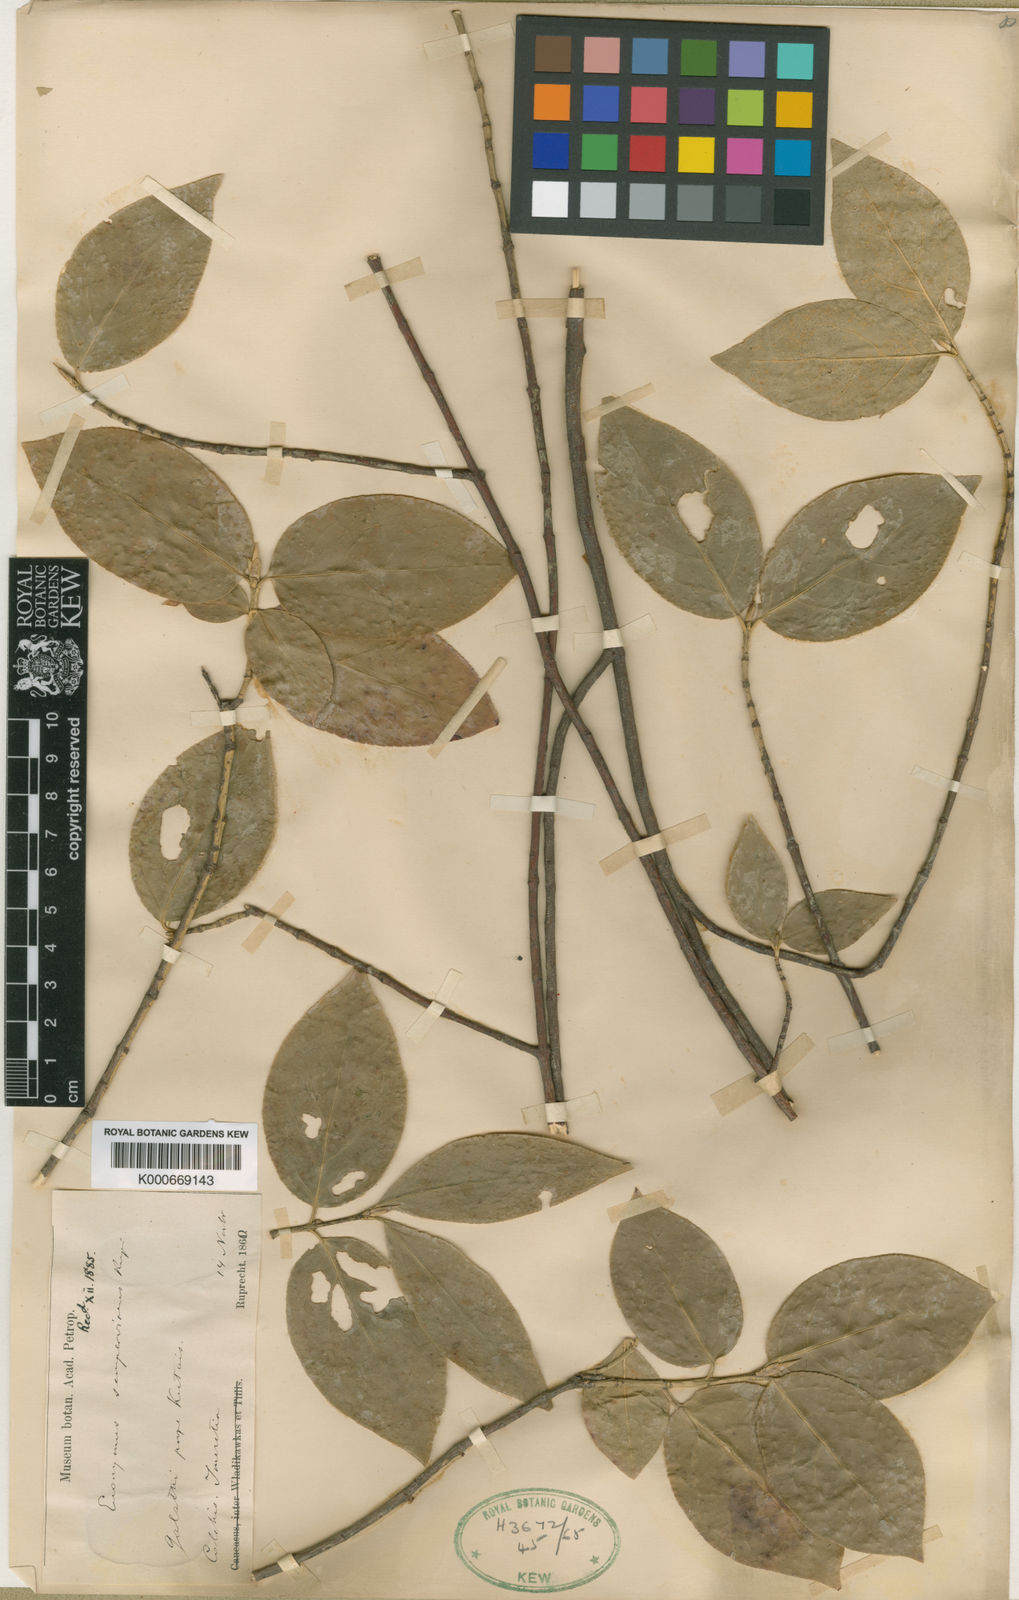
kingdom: Plantae
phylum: Tracheophyta
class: Magnoliopsida
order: Celastrales
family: Celastraceae
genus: Euonymus
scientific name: Euonymus latifolius
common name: Large-leaved spindle
